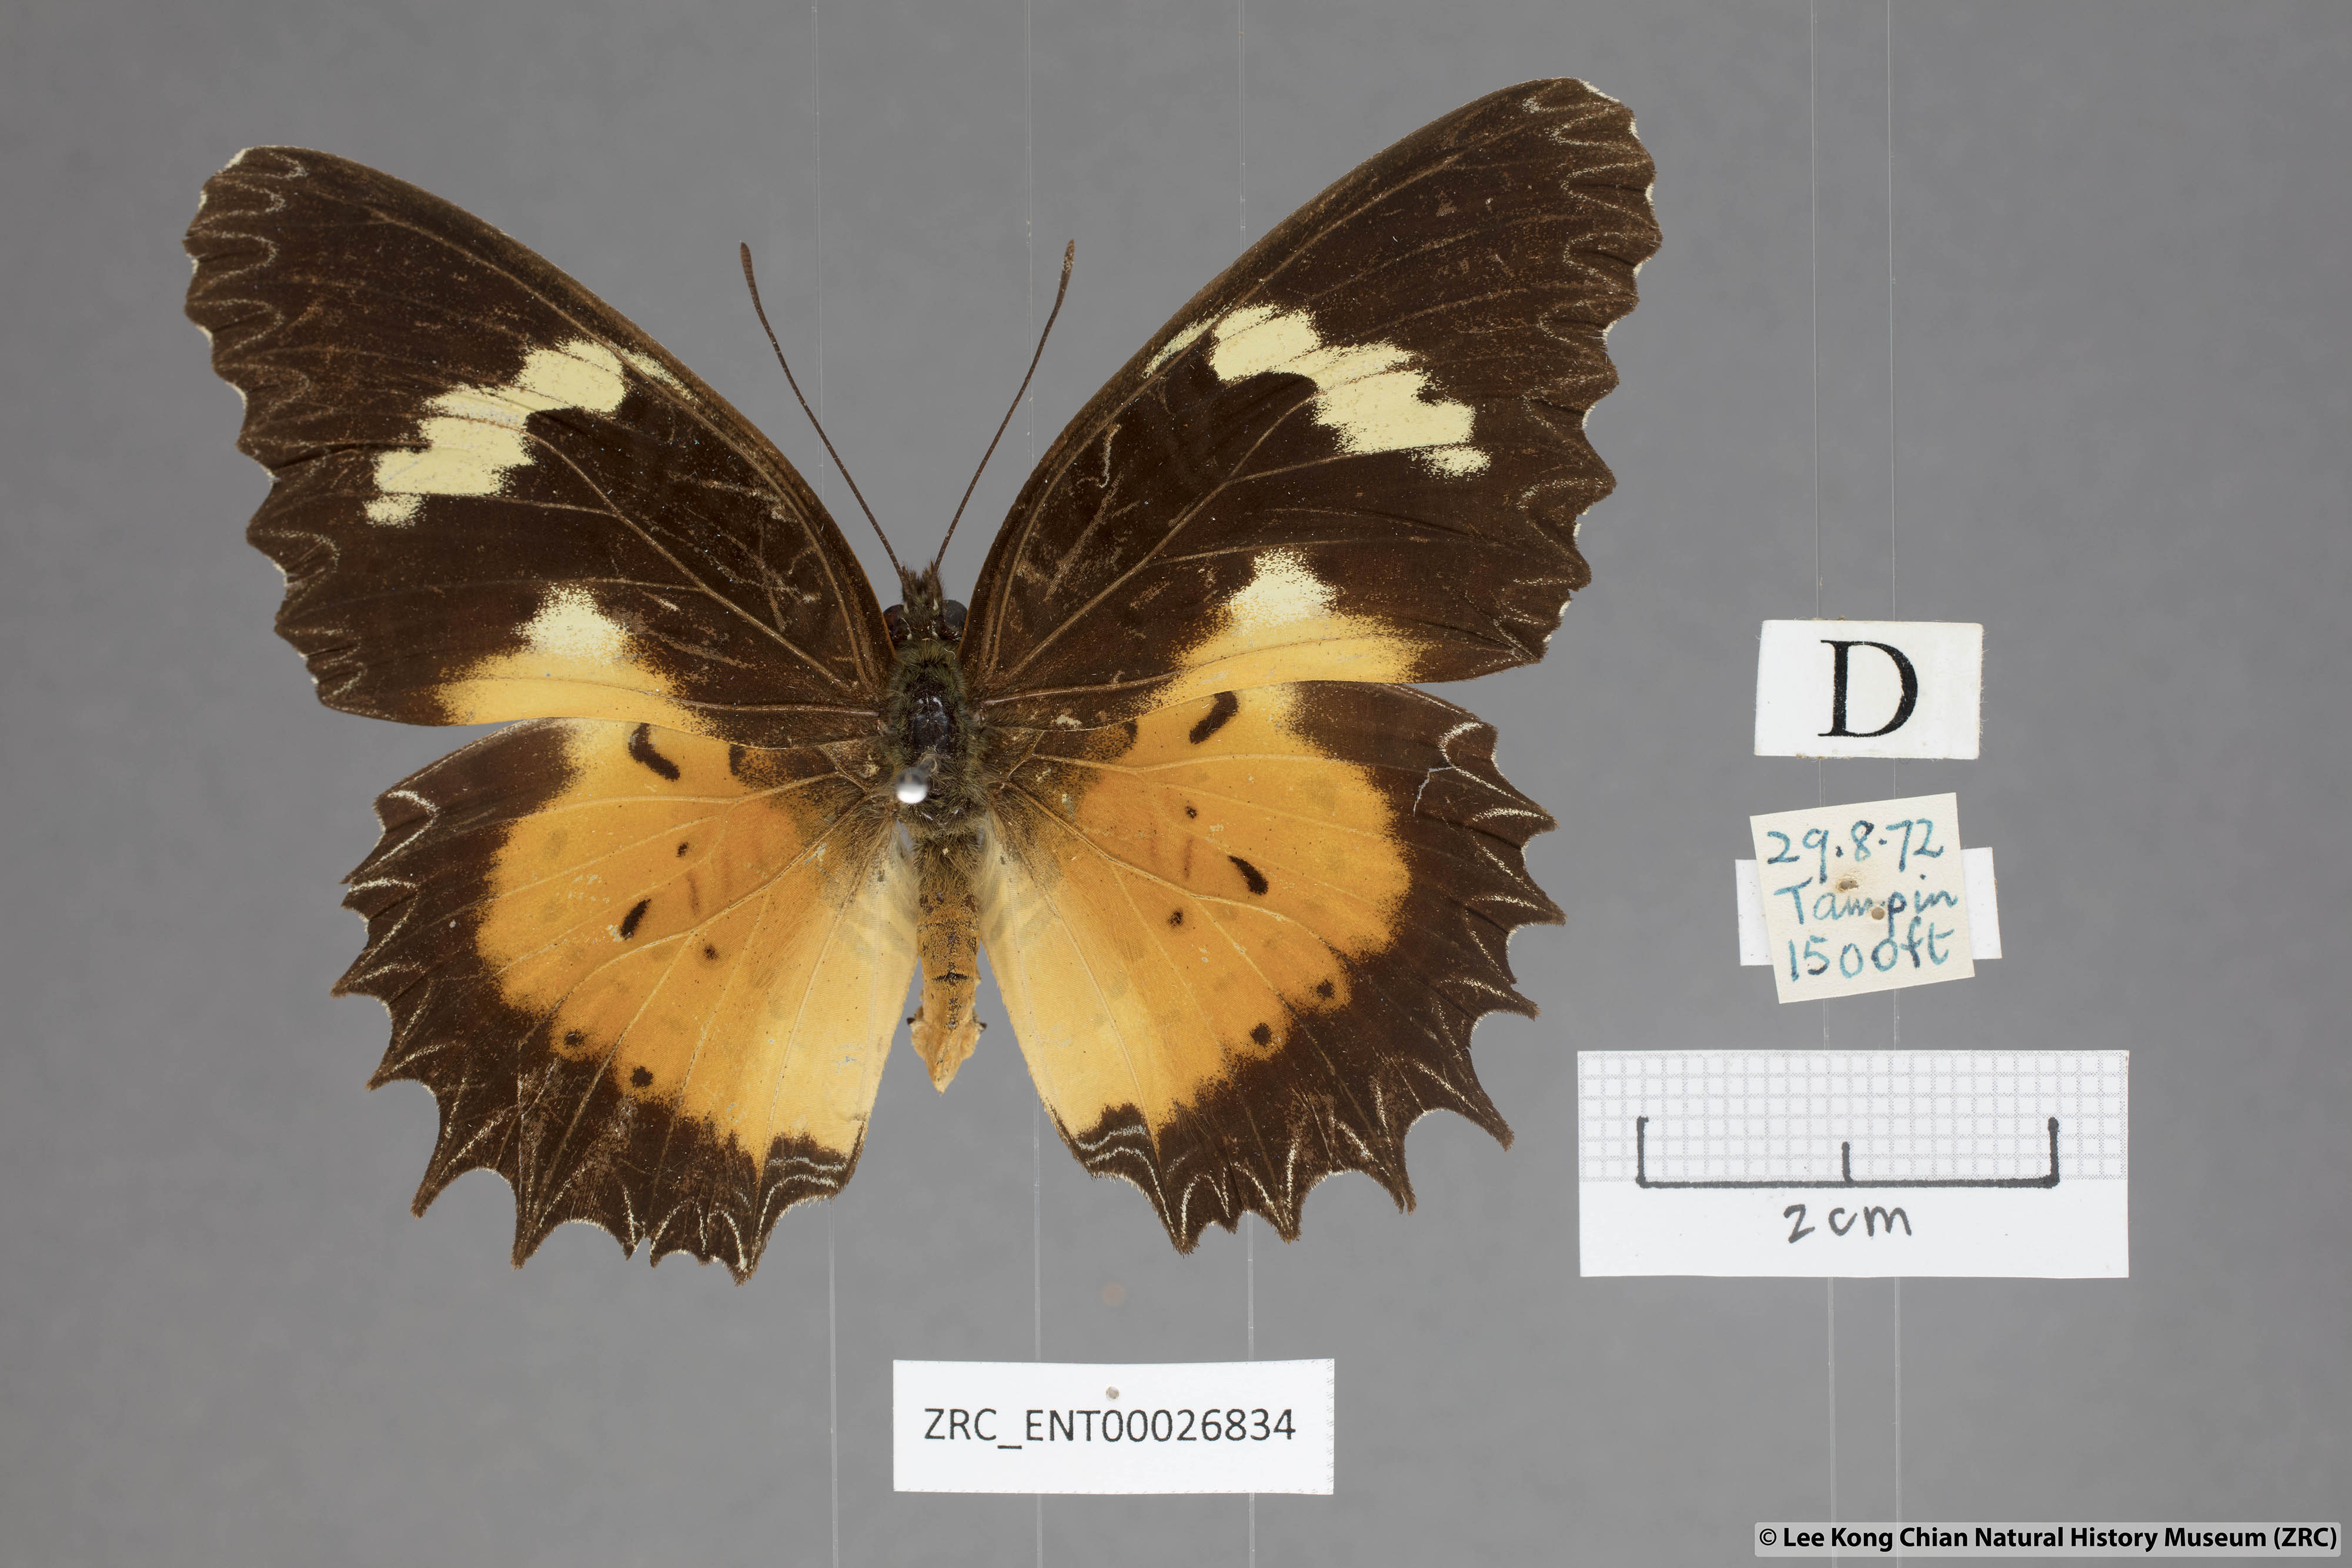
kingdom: Animalia
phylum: Arthropoda
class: Insecta
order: Lepidoptera
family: Nymphalidae
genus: Cethosia
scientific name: Cethosia hypsea
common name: Malayan lacewing butterfly
